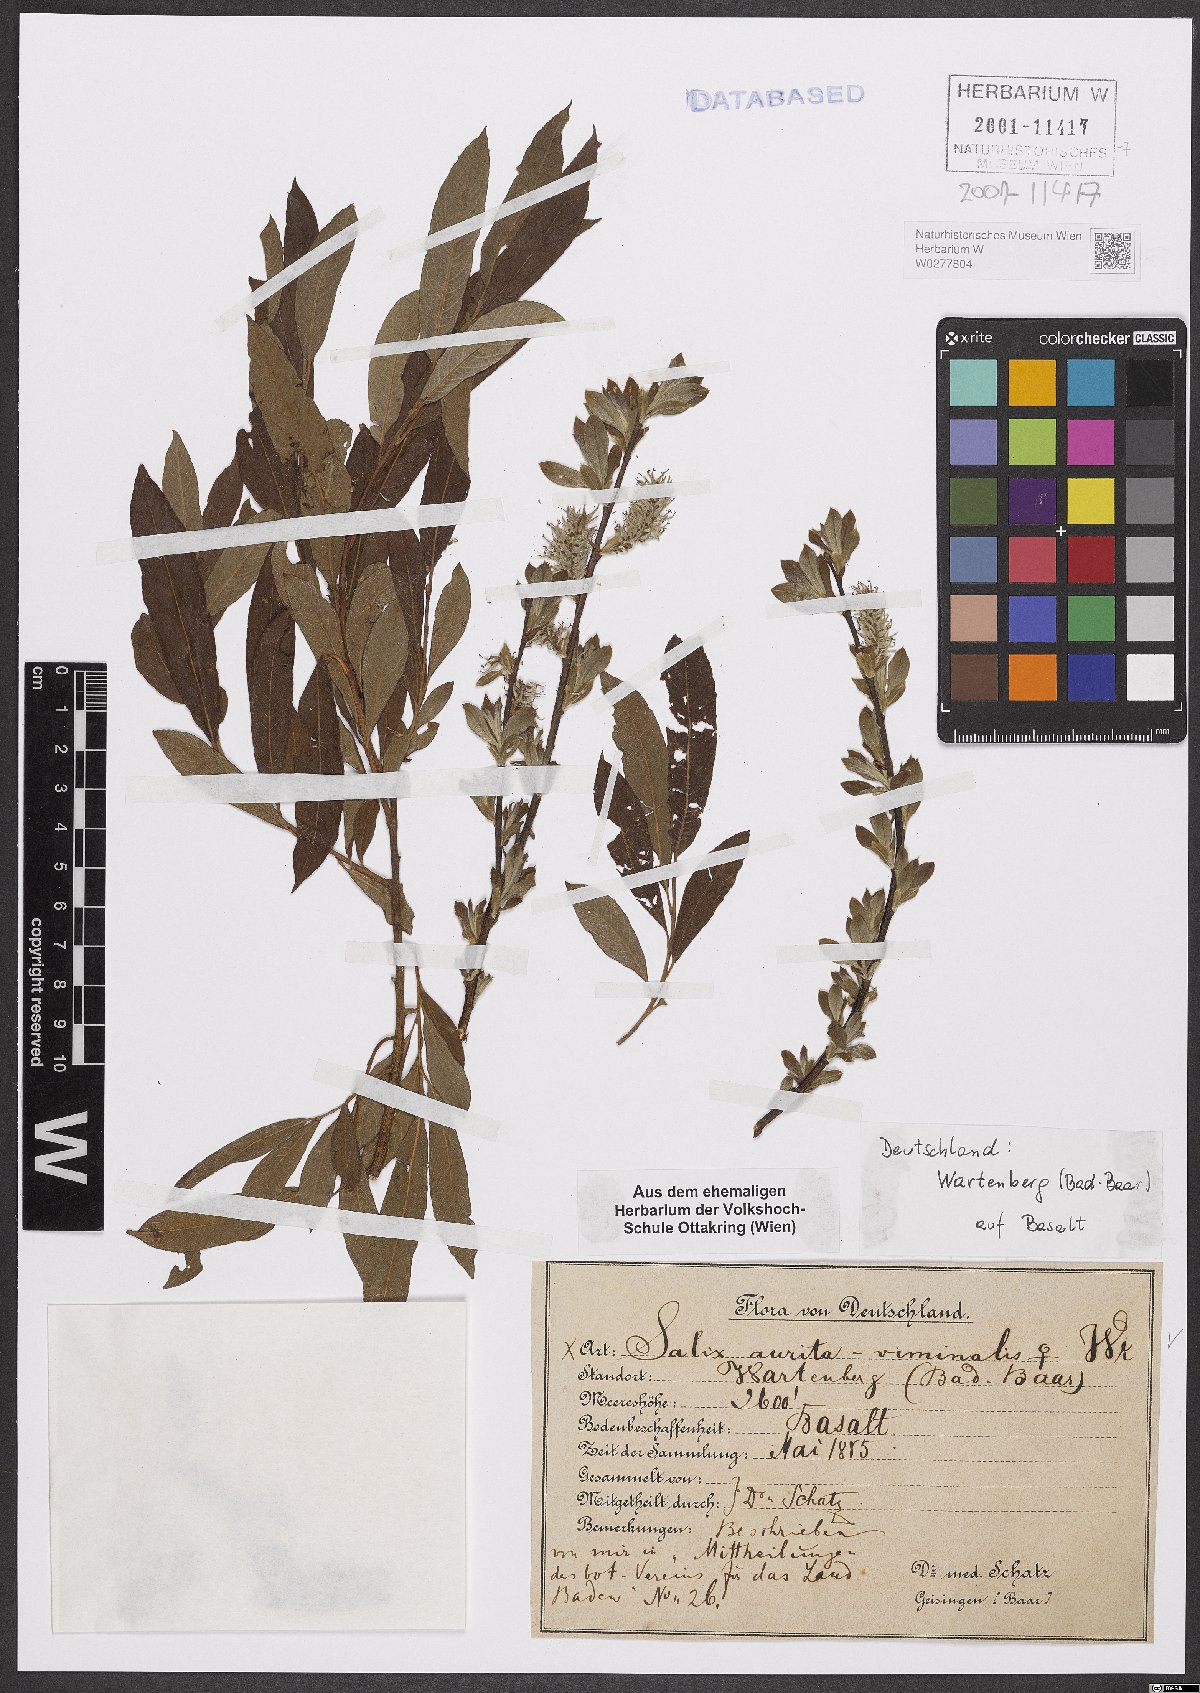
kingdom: Plantae
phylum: Tracheophyta
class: Magnoliopsida
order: Malpighiales
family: Salicaceae
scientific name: Salicaceae
